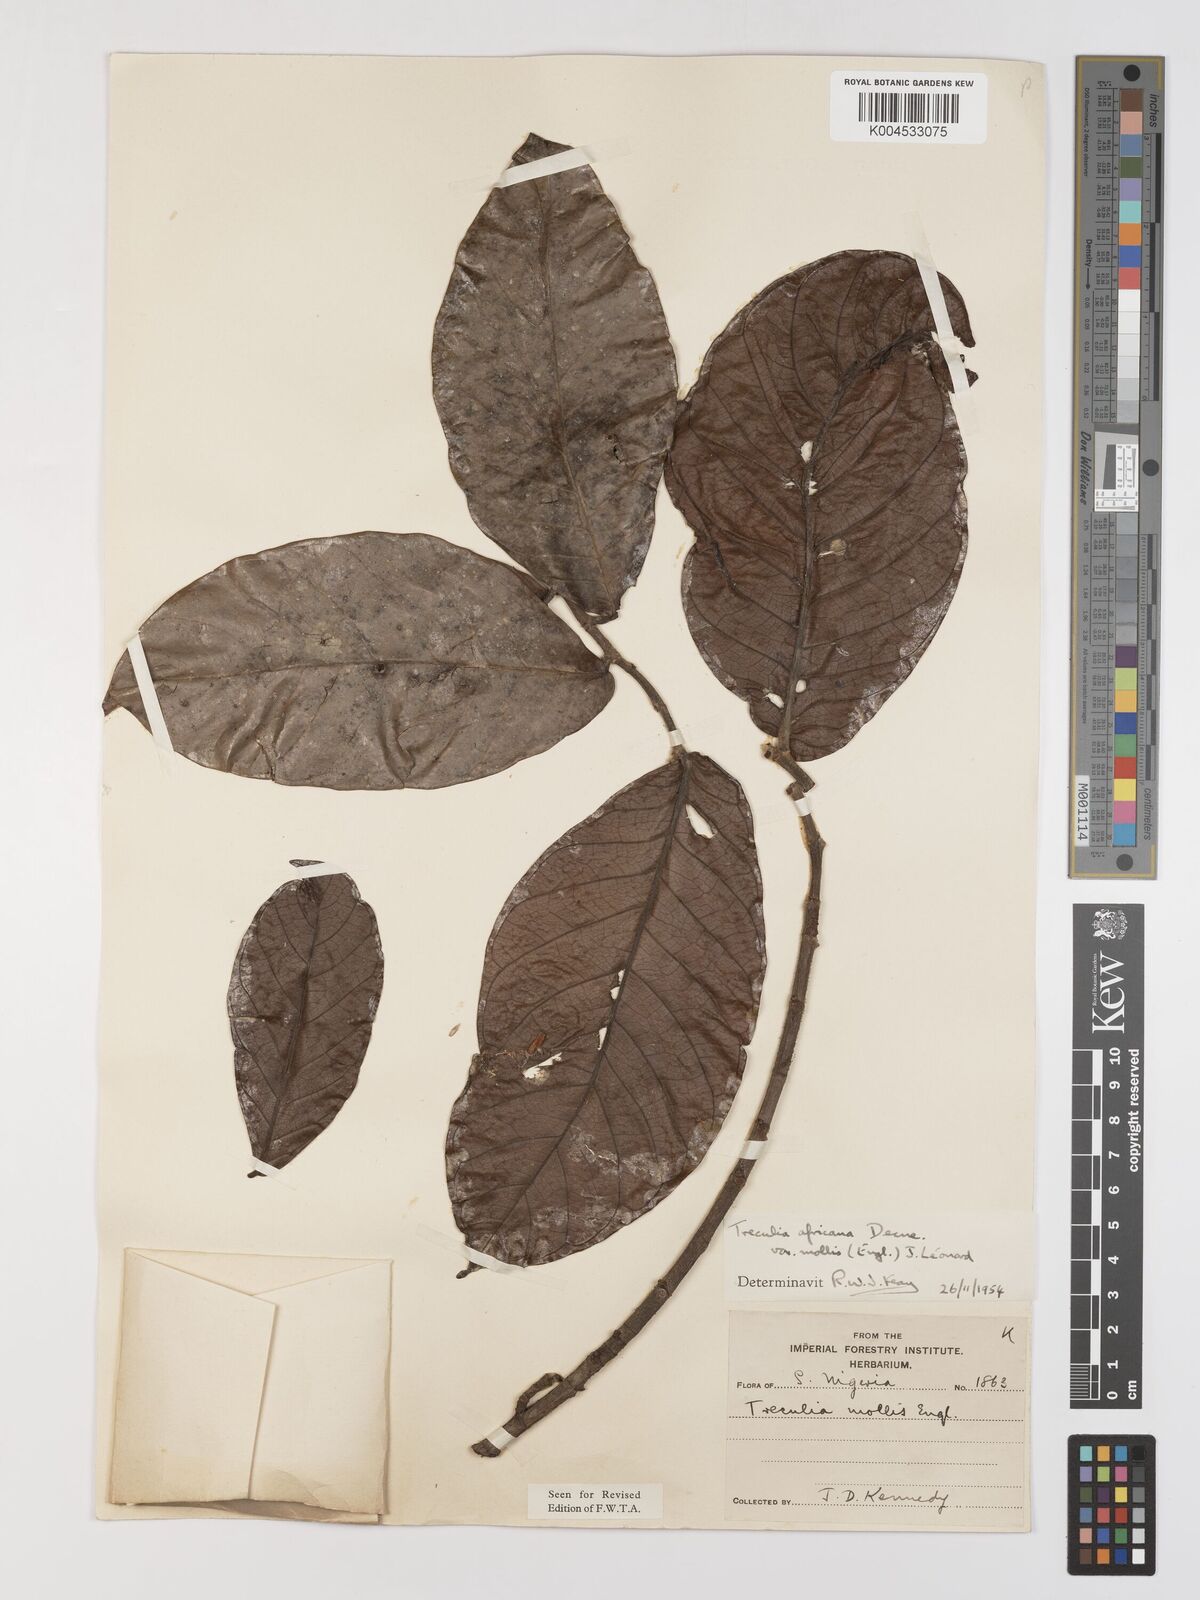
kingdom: Plantae
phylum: Tracheophyta
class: Magnoliopsida
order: Rosales
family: Moraceae
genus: Treculia
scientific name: Treculia africana
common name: African breadfruit
